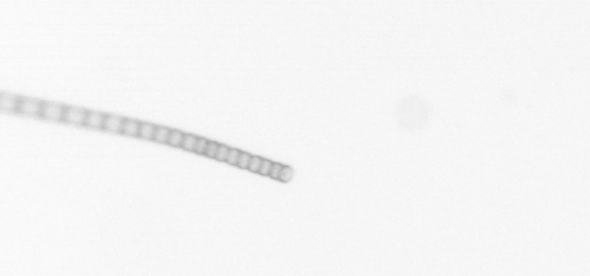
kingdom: Chromista
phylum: Ochrophyta
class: Bacillariophyceae
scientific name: Bacillariophyceae
